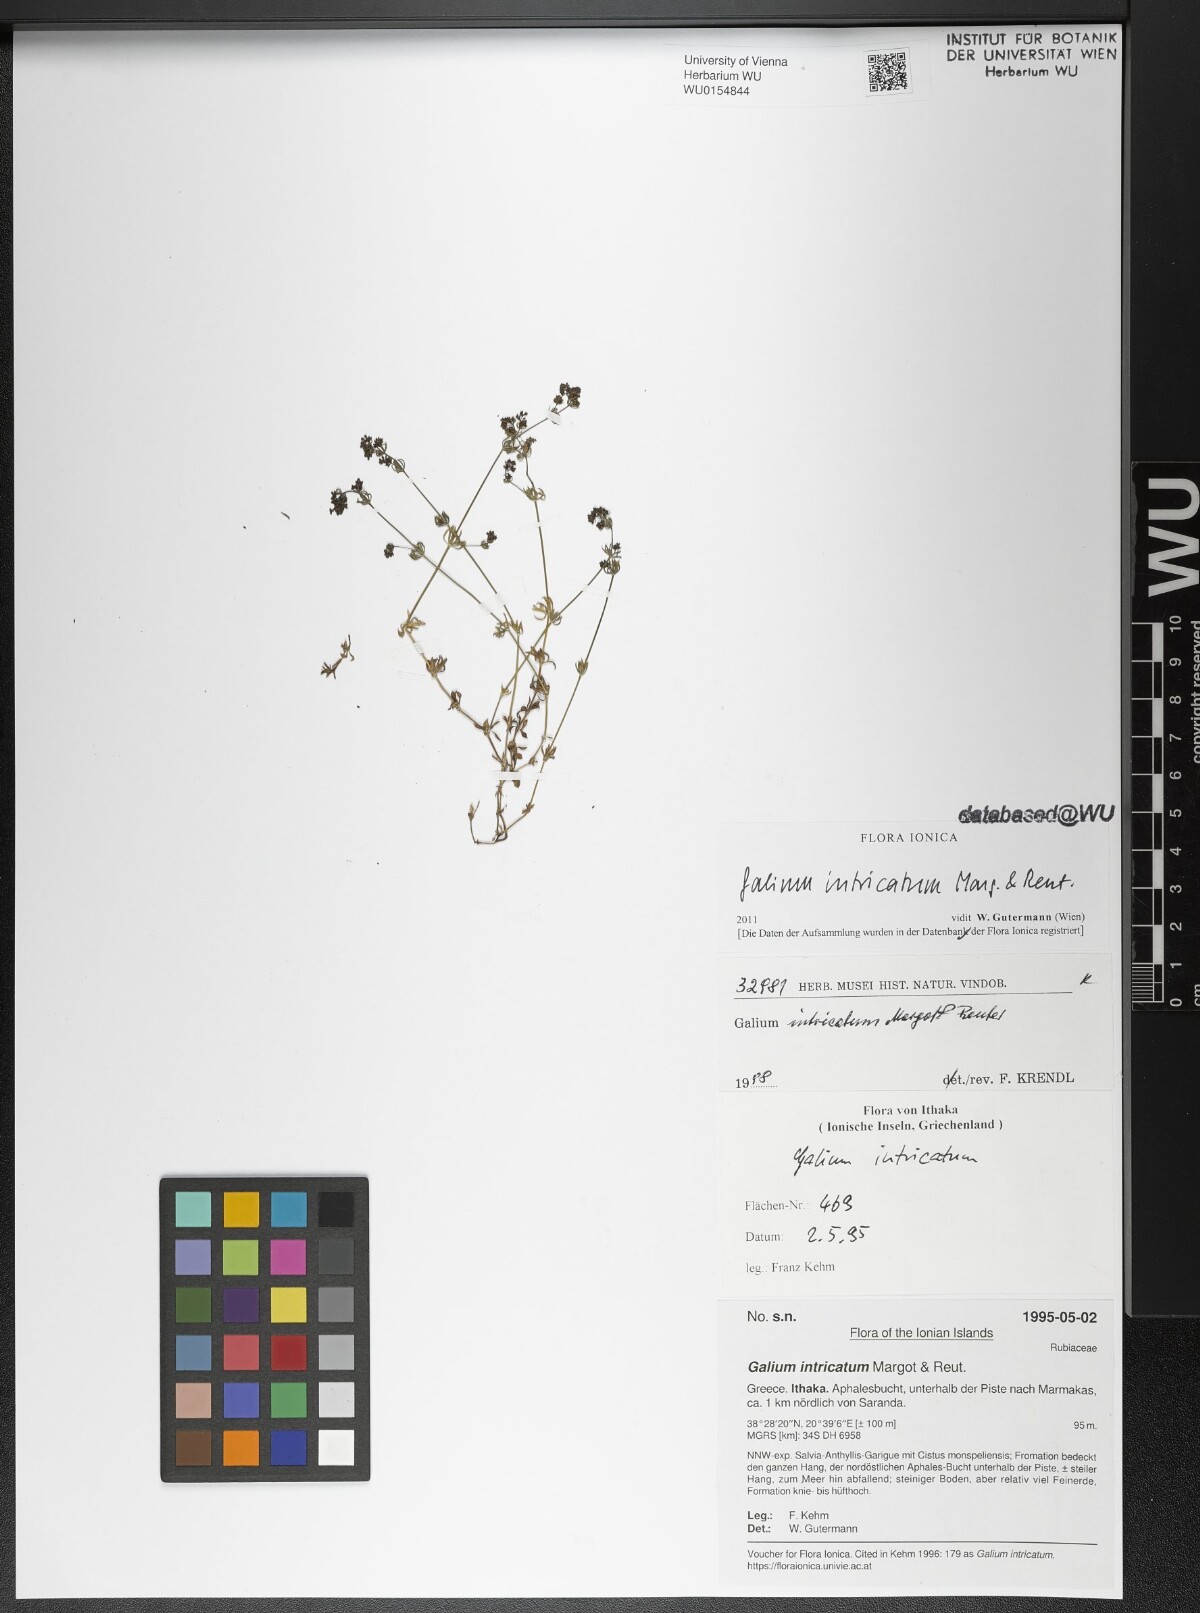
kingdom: Plantae
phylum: Tracheophyta
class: Magnoliopsida
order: Gentianales
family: Rubiaceae
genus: Galium
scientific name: Galium intricatum
